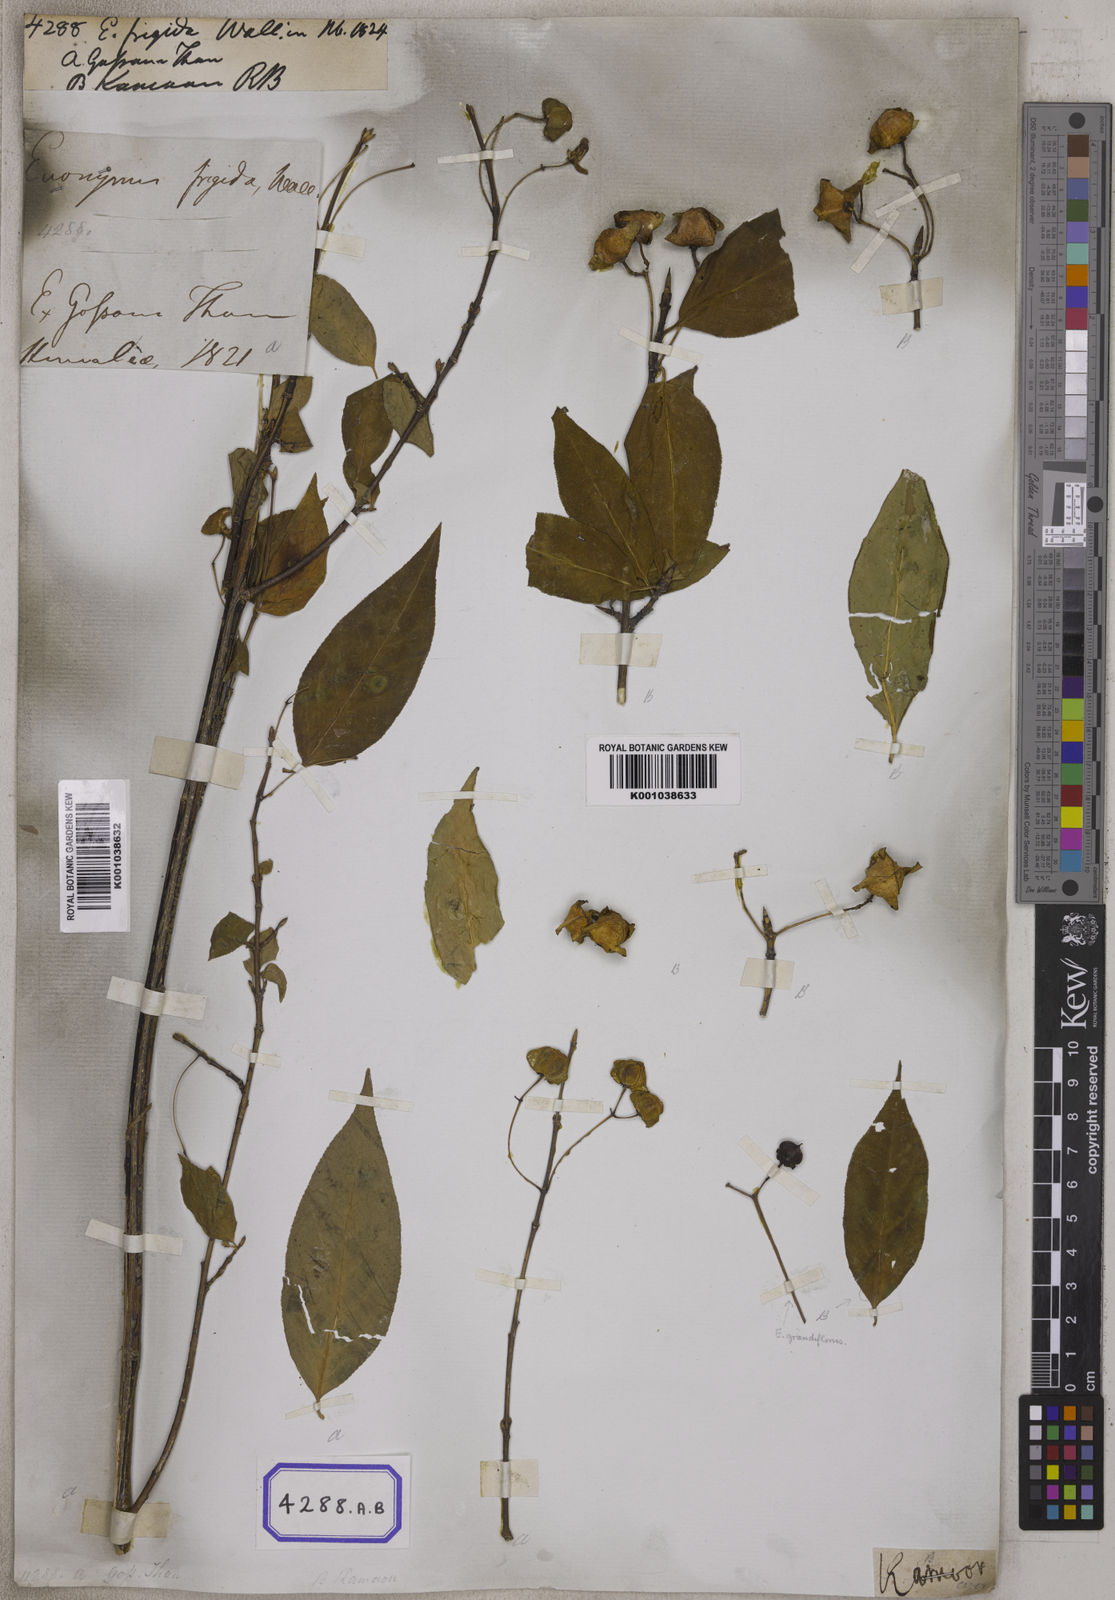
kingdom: Plantae
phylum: Tracheophyta
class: Magnoliopsida
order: Celastrales
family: Celastraceae
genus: Euonymus
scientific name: Euonymus frigidus
